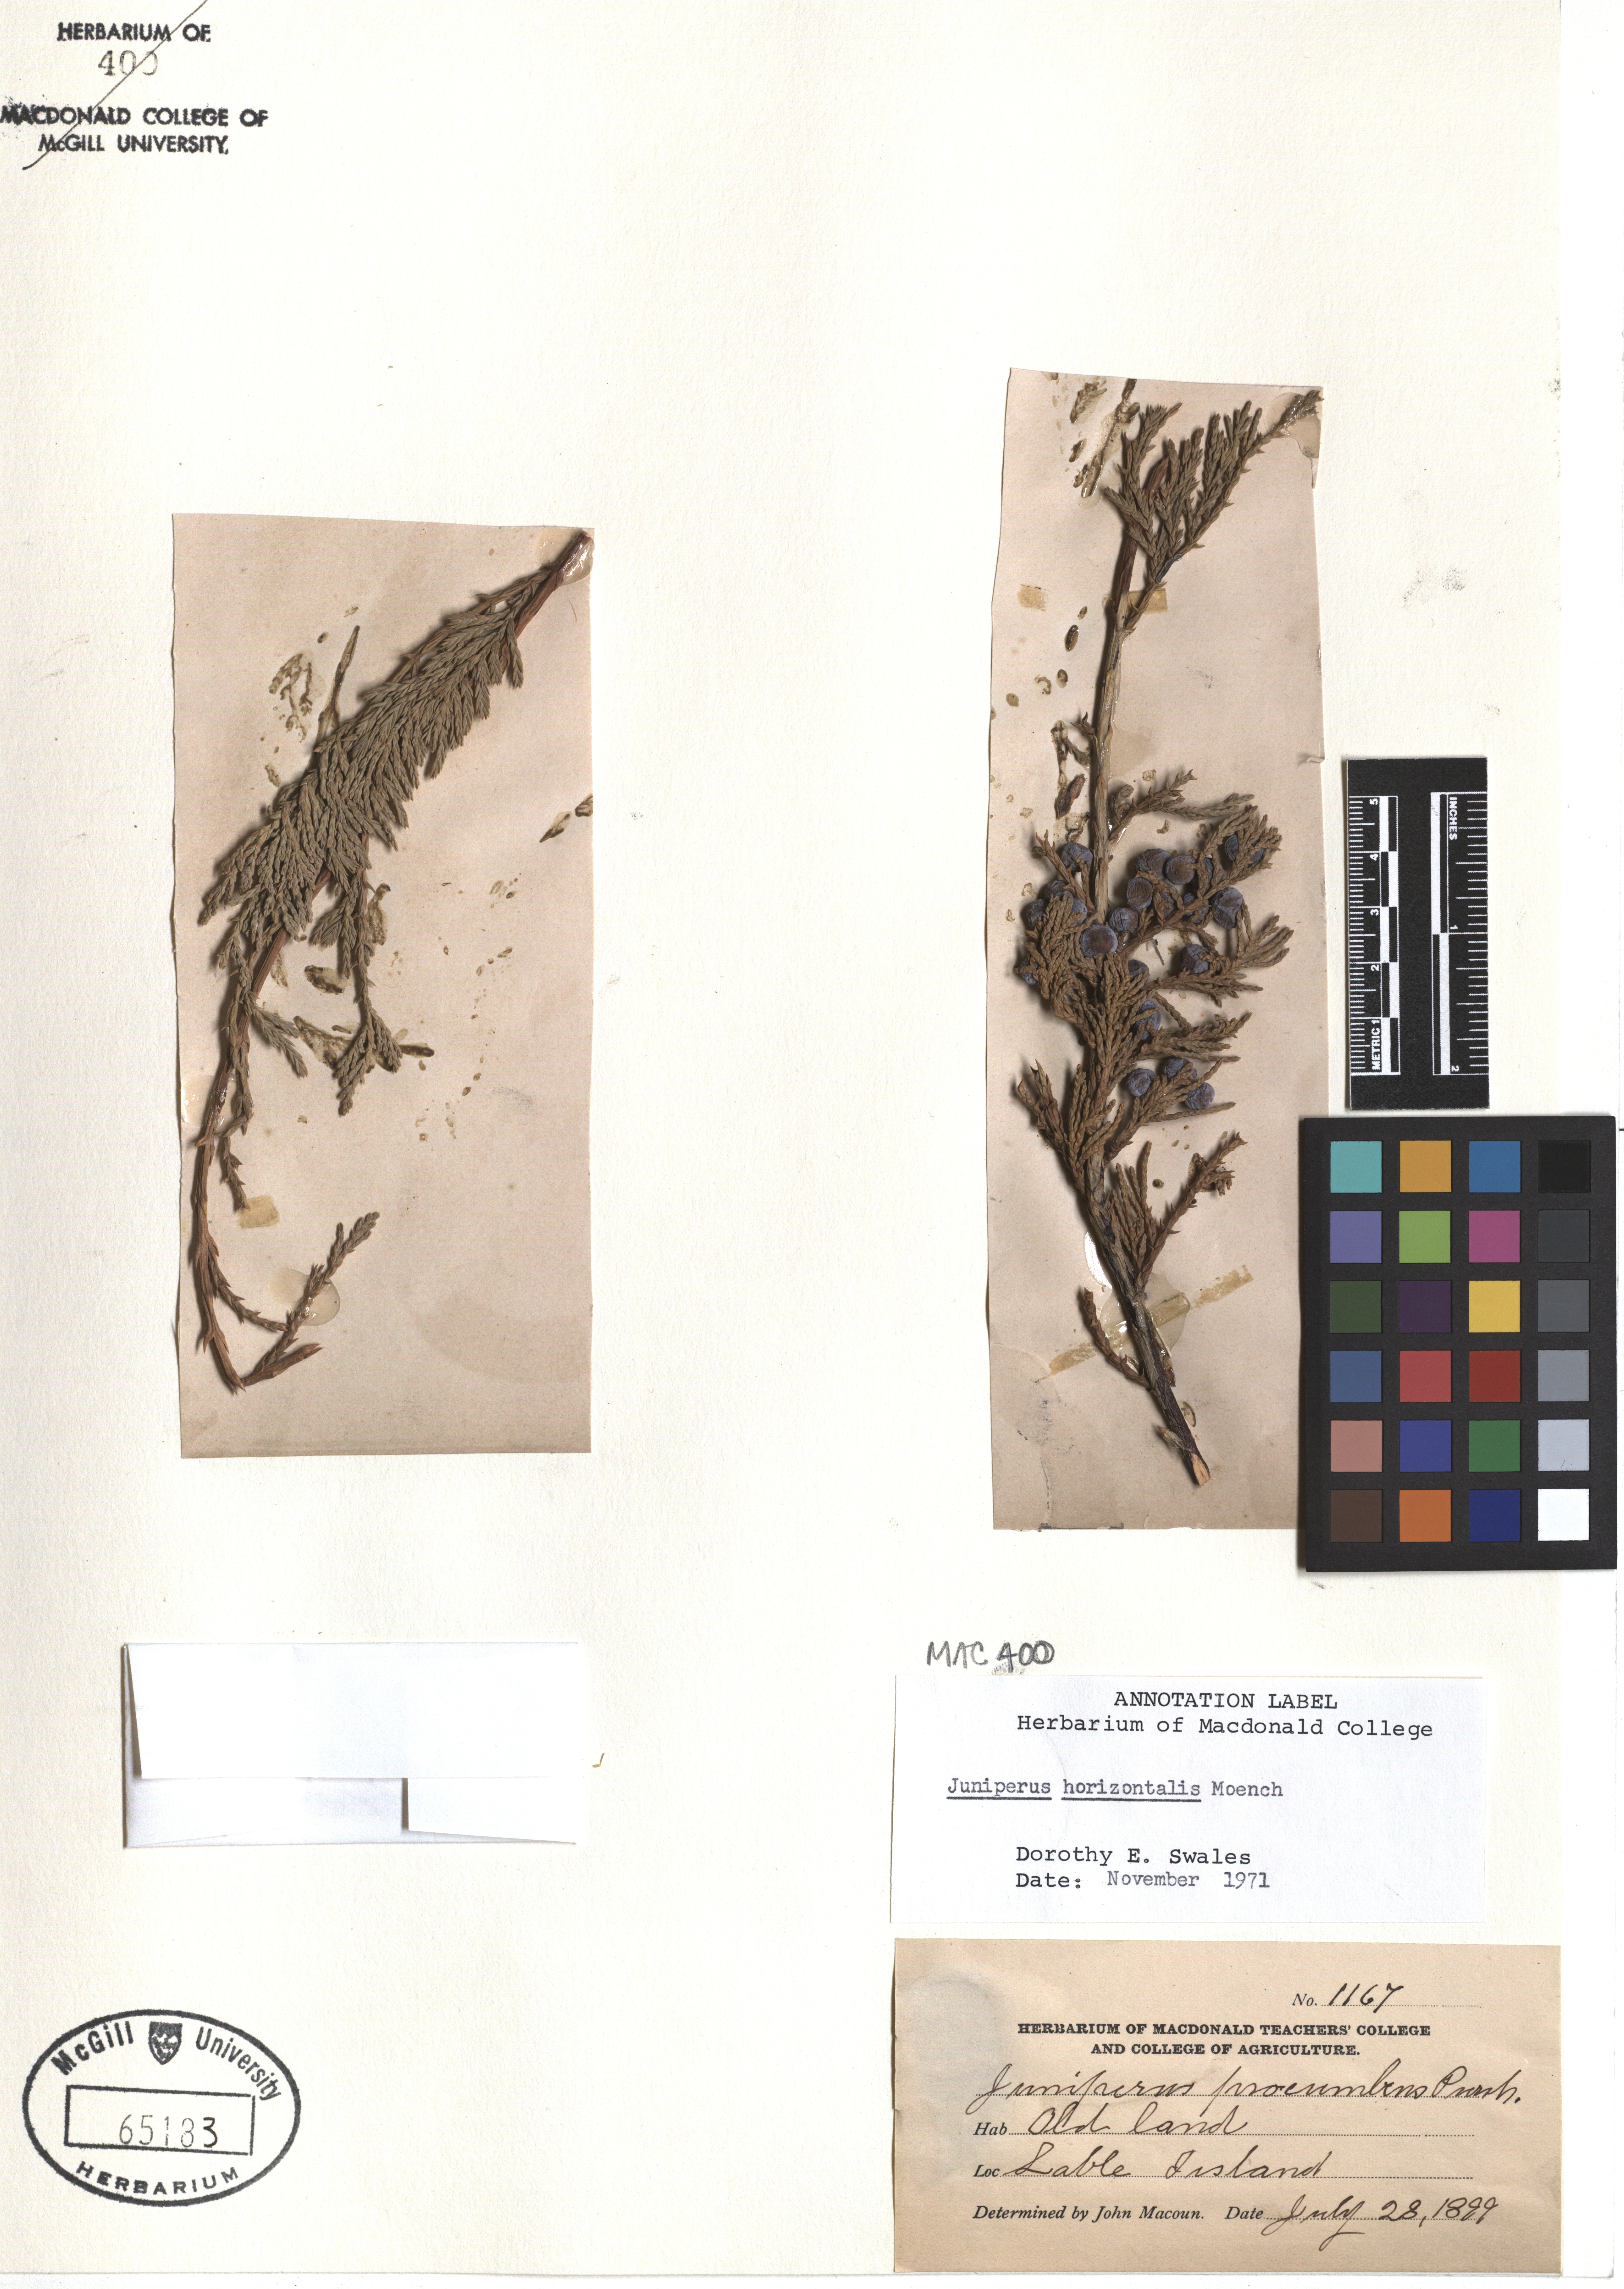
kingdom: Plantae
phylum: Tracheophyta
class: Pinopsida
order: Pinales
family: Cupressaceae
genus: Juniperus
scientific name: Juniperus horizontalis
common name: Creeping juniper
